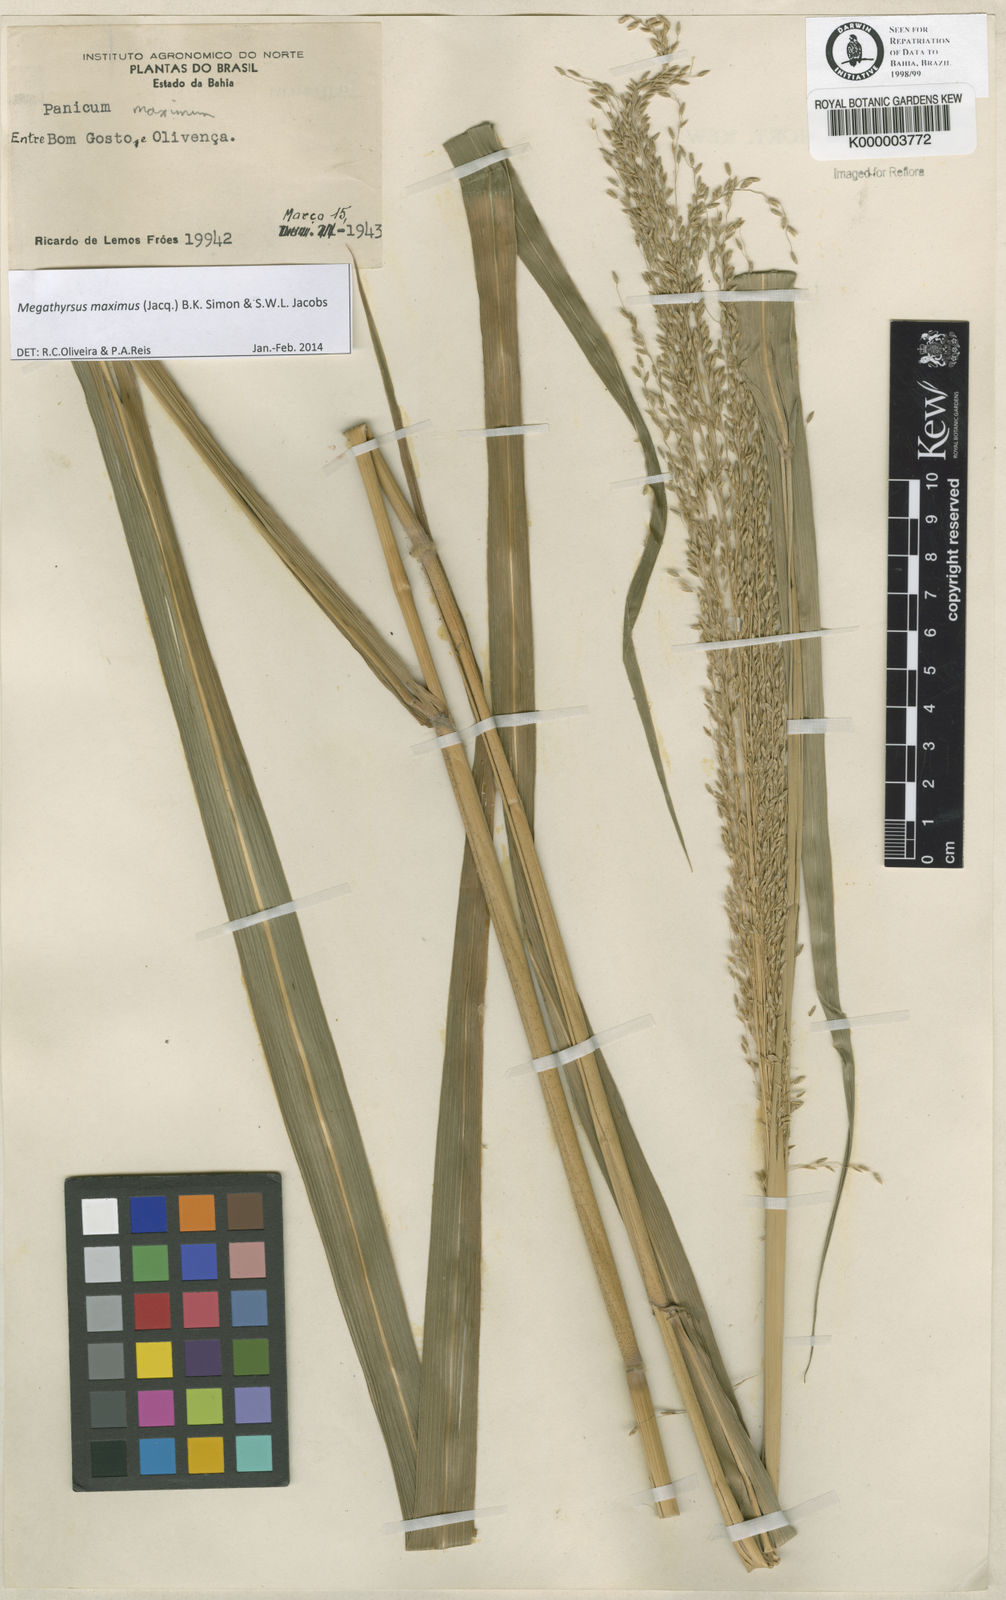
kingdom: Plantae
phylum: Tracheophyta
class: Liliopsida
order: Poales
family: Poaceae
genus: Megathyrsus
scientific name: Megathyrsus maximus
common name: Guineagrass
